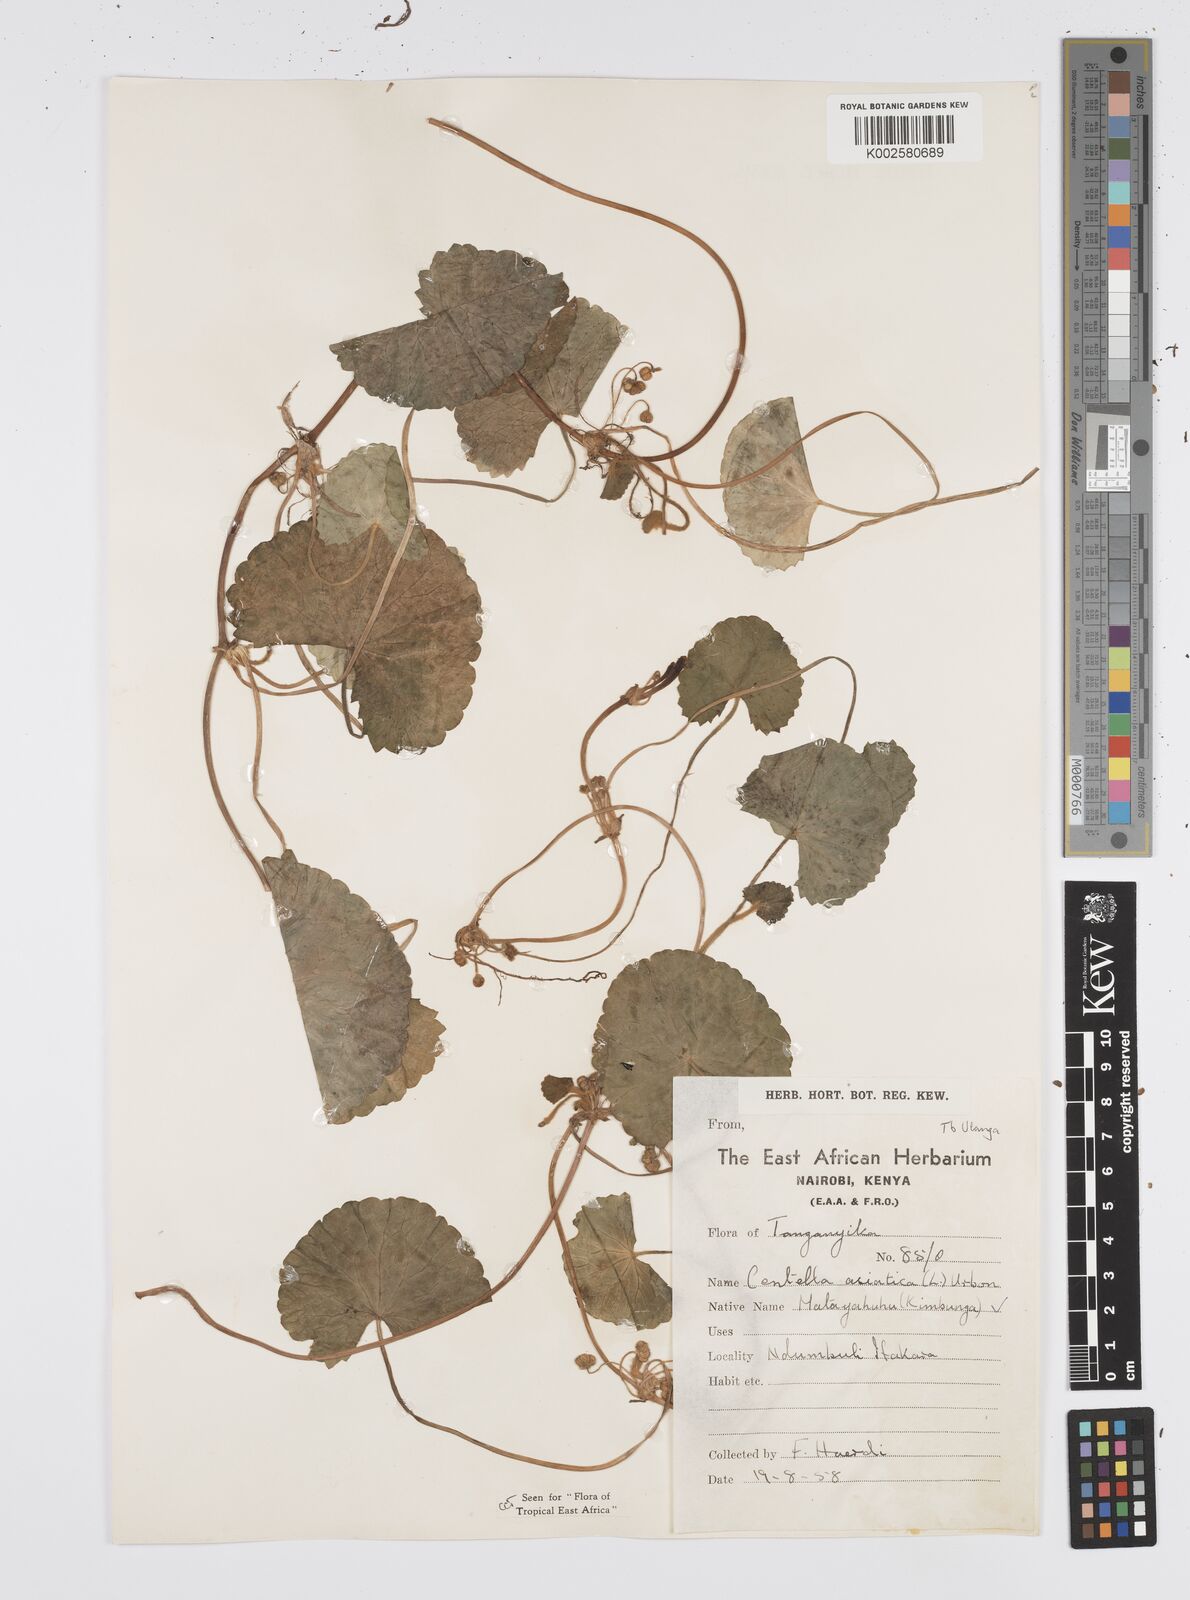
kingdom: Plantae
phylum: Tracheophyta
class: Magnoliopsida
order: Apiales
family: Apiaceae
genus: Centella
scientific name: Centella asiatica
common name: Spadeleaf
